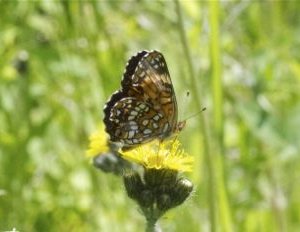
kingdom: Animalia
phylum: Arthropoda
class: Insecta
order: Lepidoptera
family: Nymphalidae
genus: Chlosyne
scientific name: Chlosyne harrisii
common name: Harris's Checkerspot
